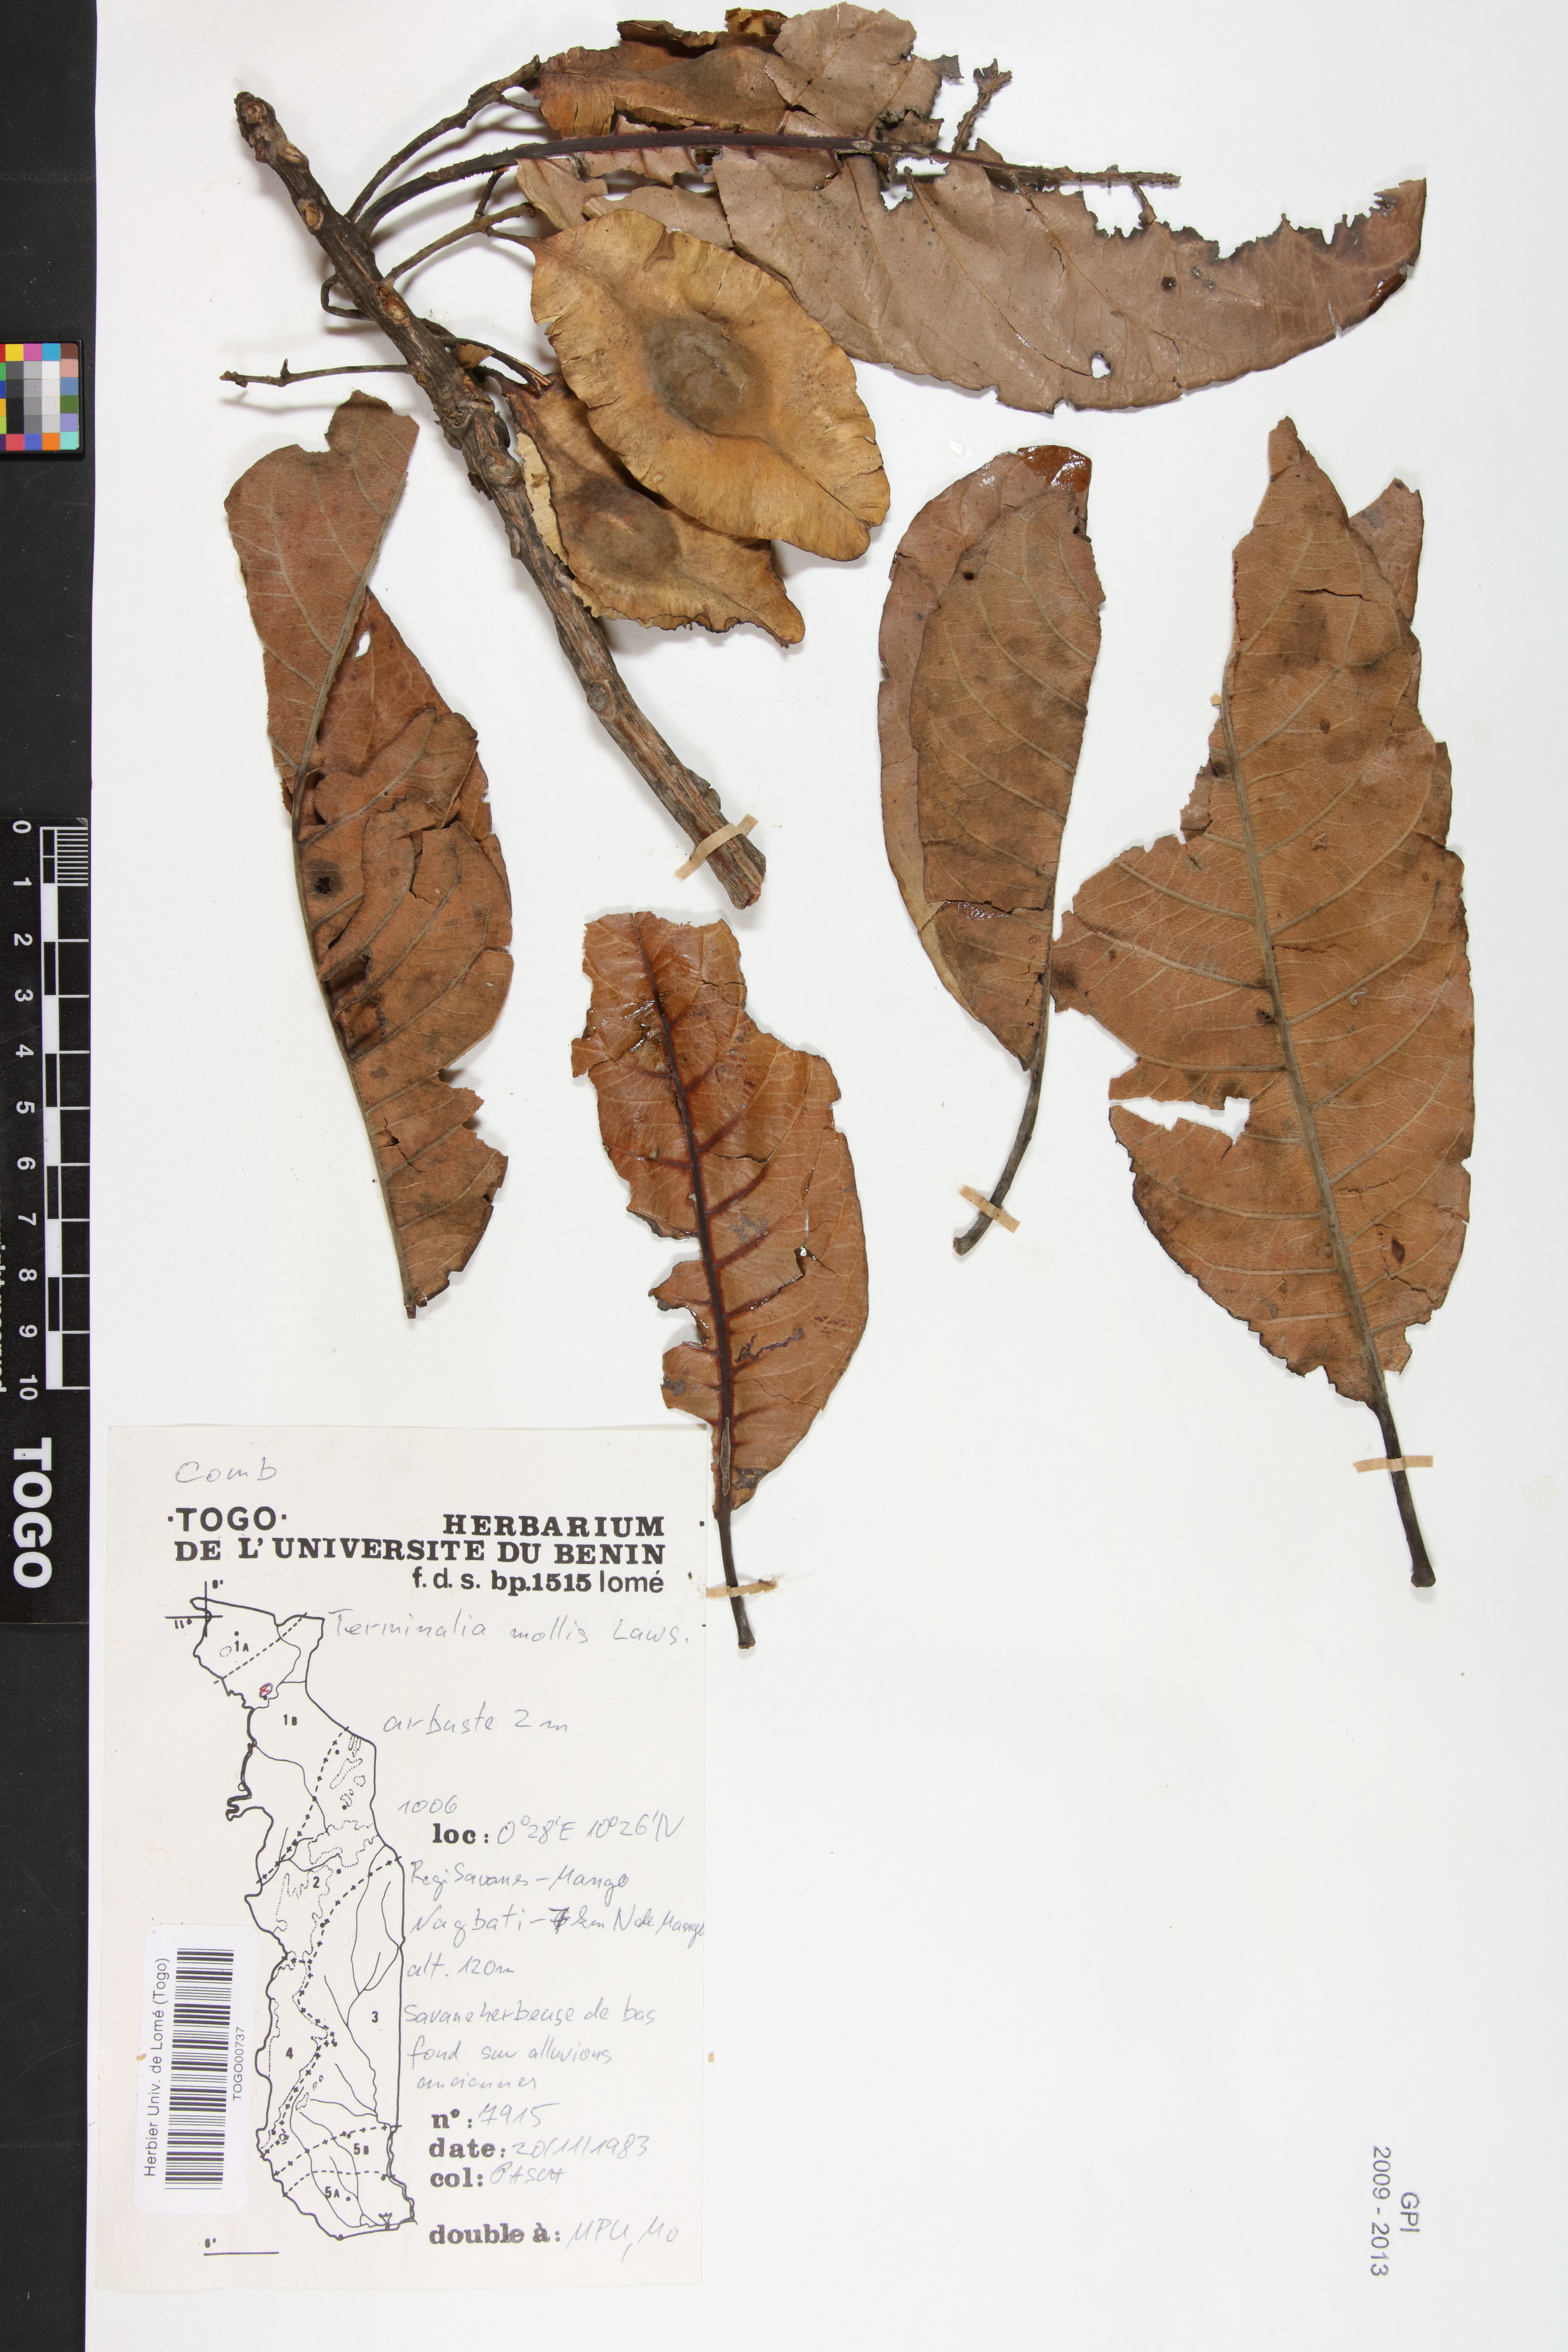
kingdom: Plantae
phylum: Tracheophyta
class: Magnoliopsida
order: Myrtales
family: Combretaceae
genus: Terminalia
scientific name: Terminalia mollis
